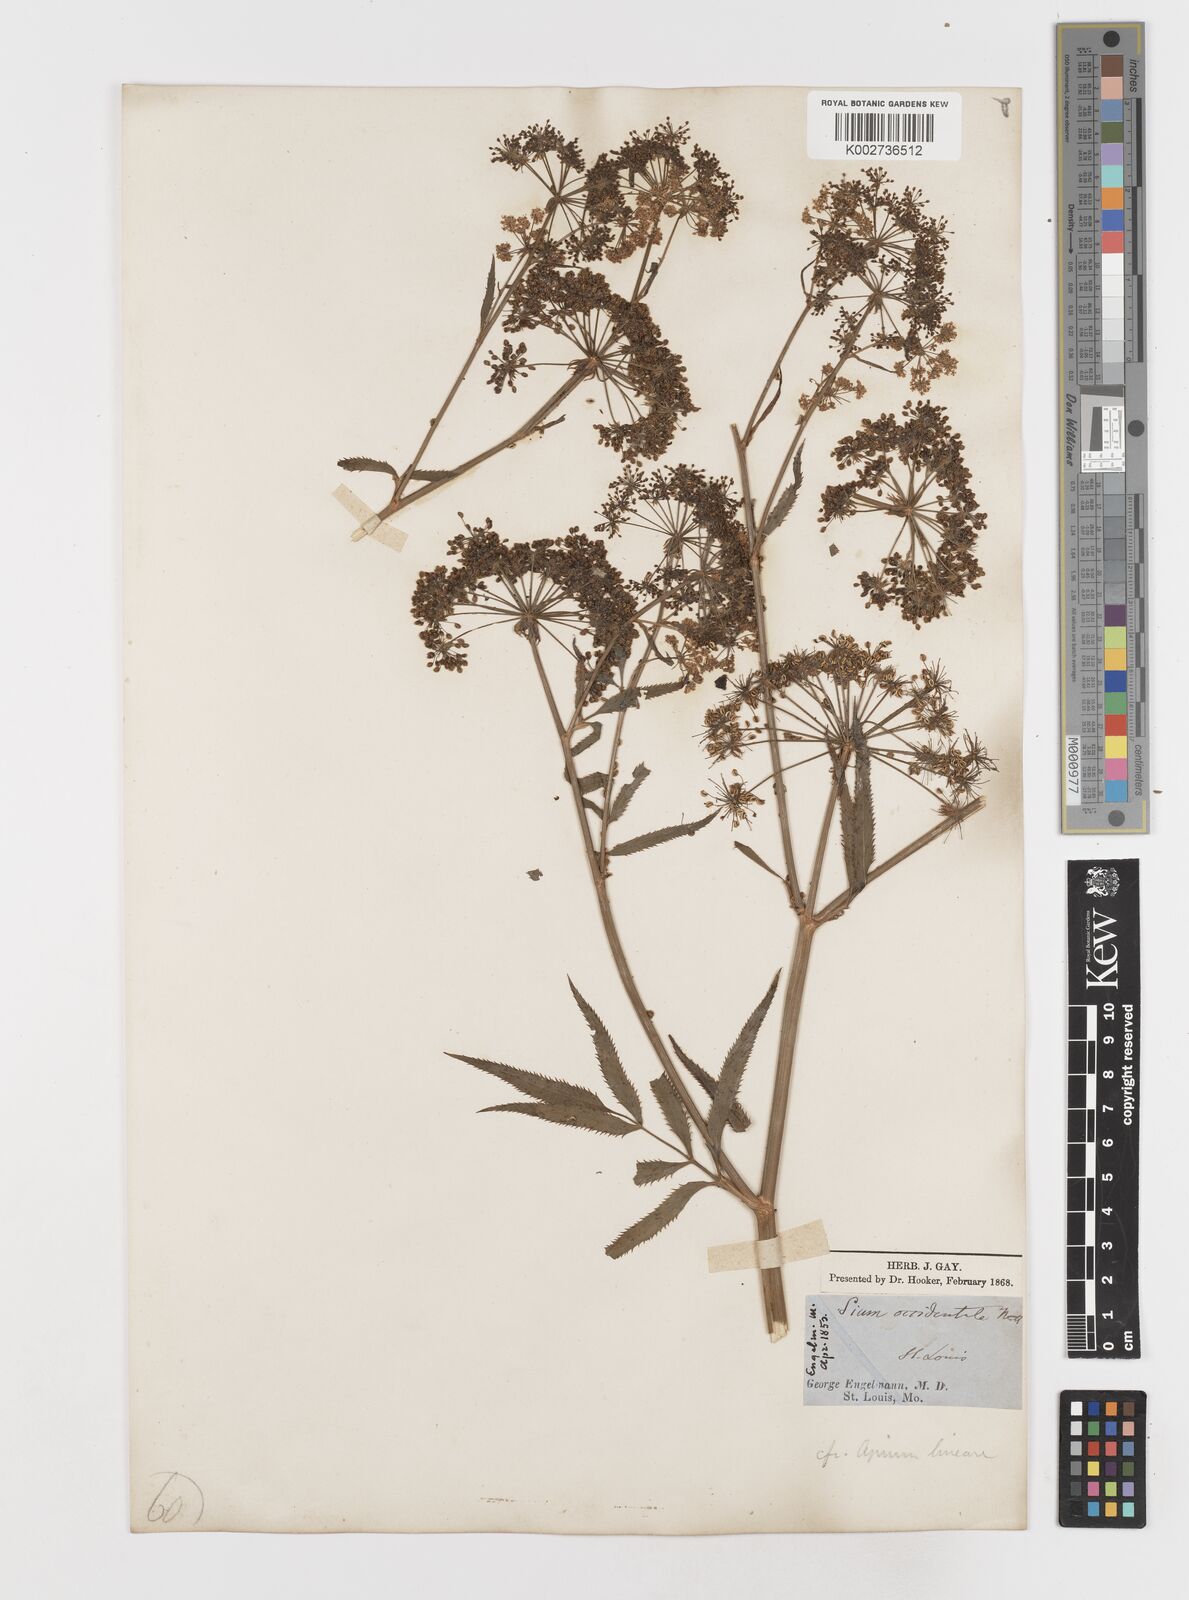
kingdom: Plantae
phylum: Tracheophyta
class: Magnoliopsida
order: Apiales
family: Apiaceae
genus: Sium
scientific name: Sium suave
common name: Hemlock water-parsnip
